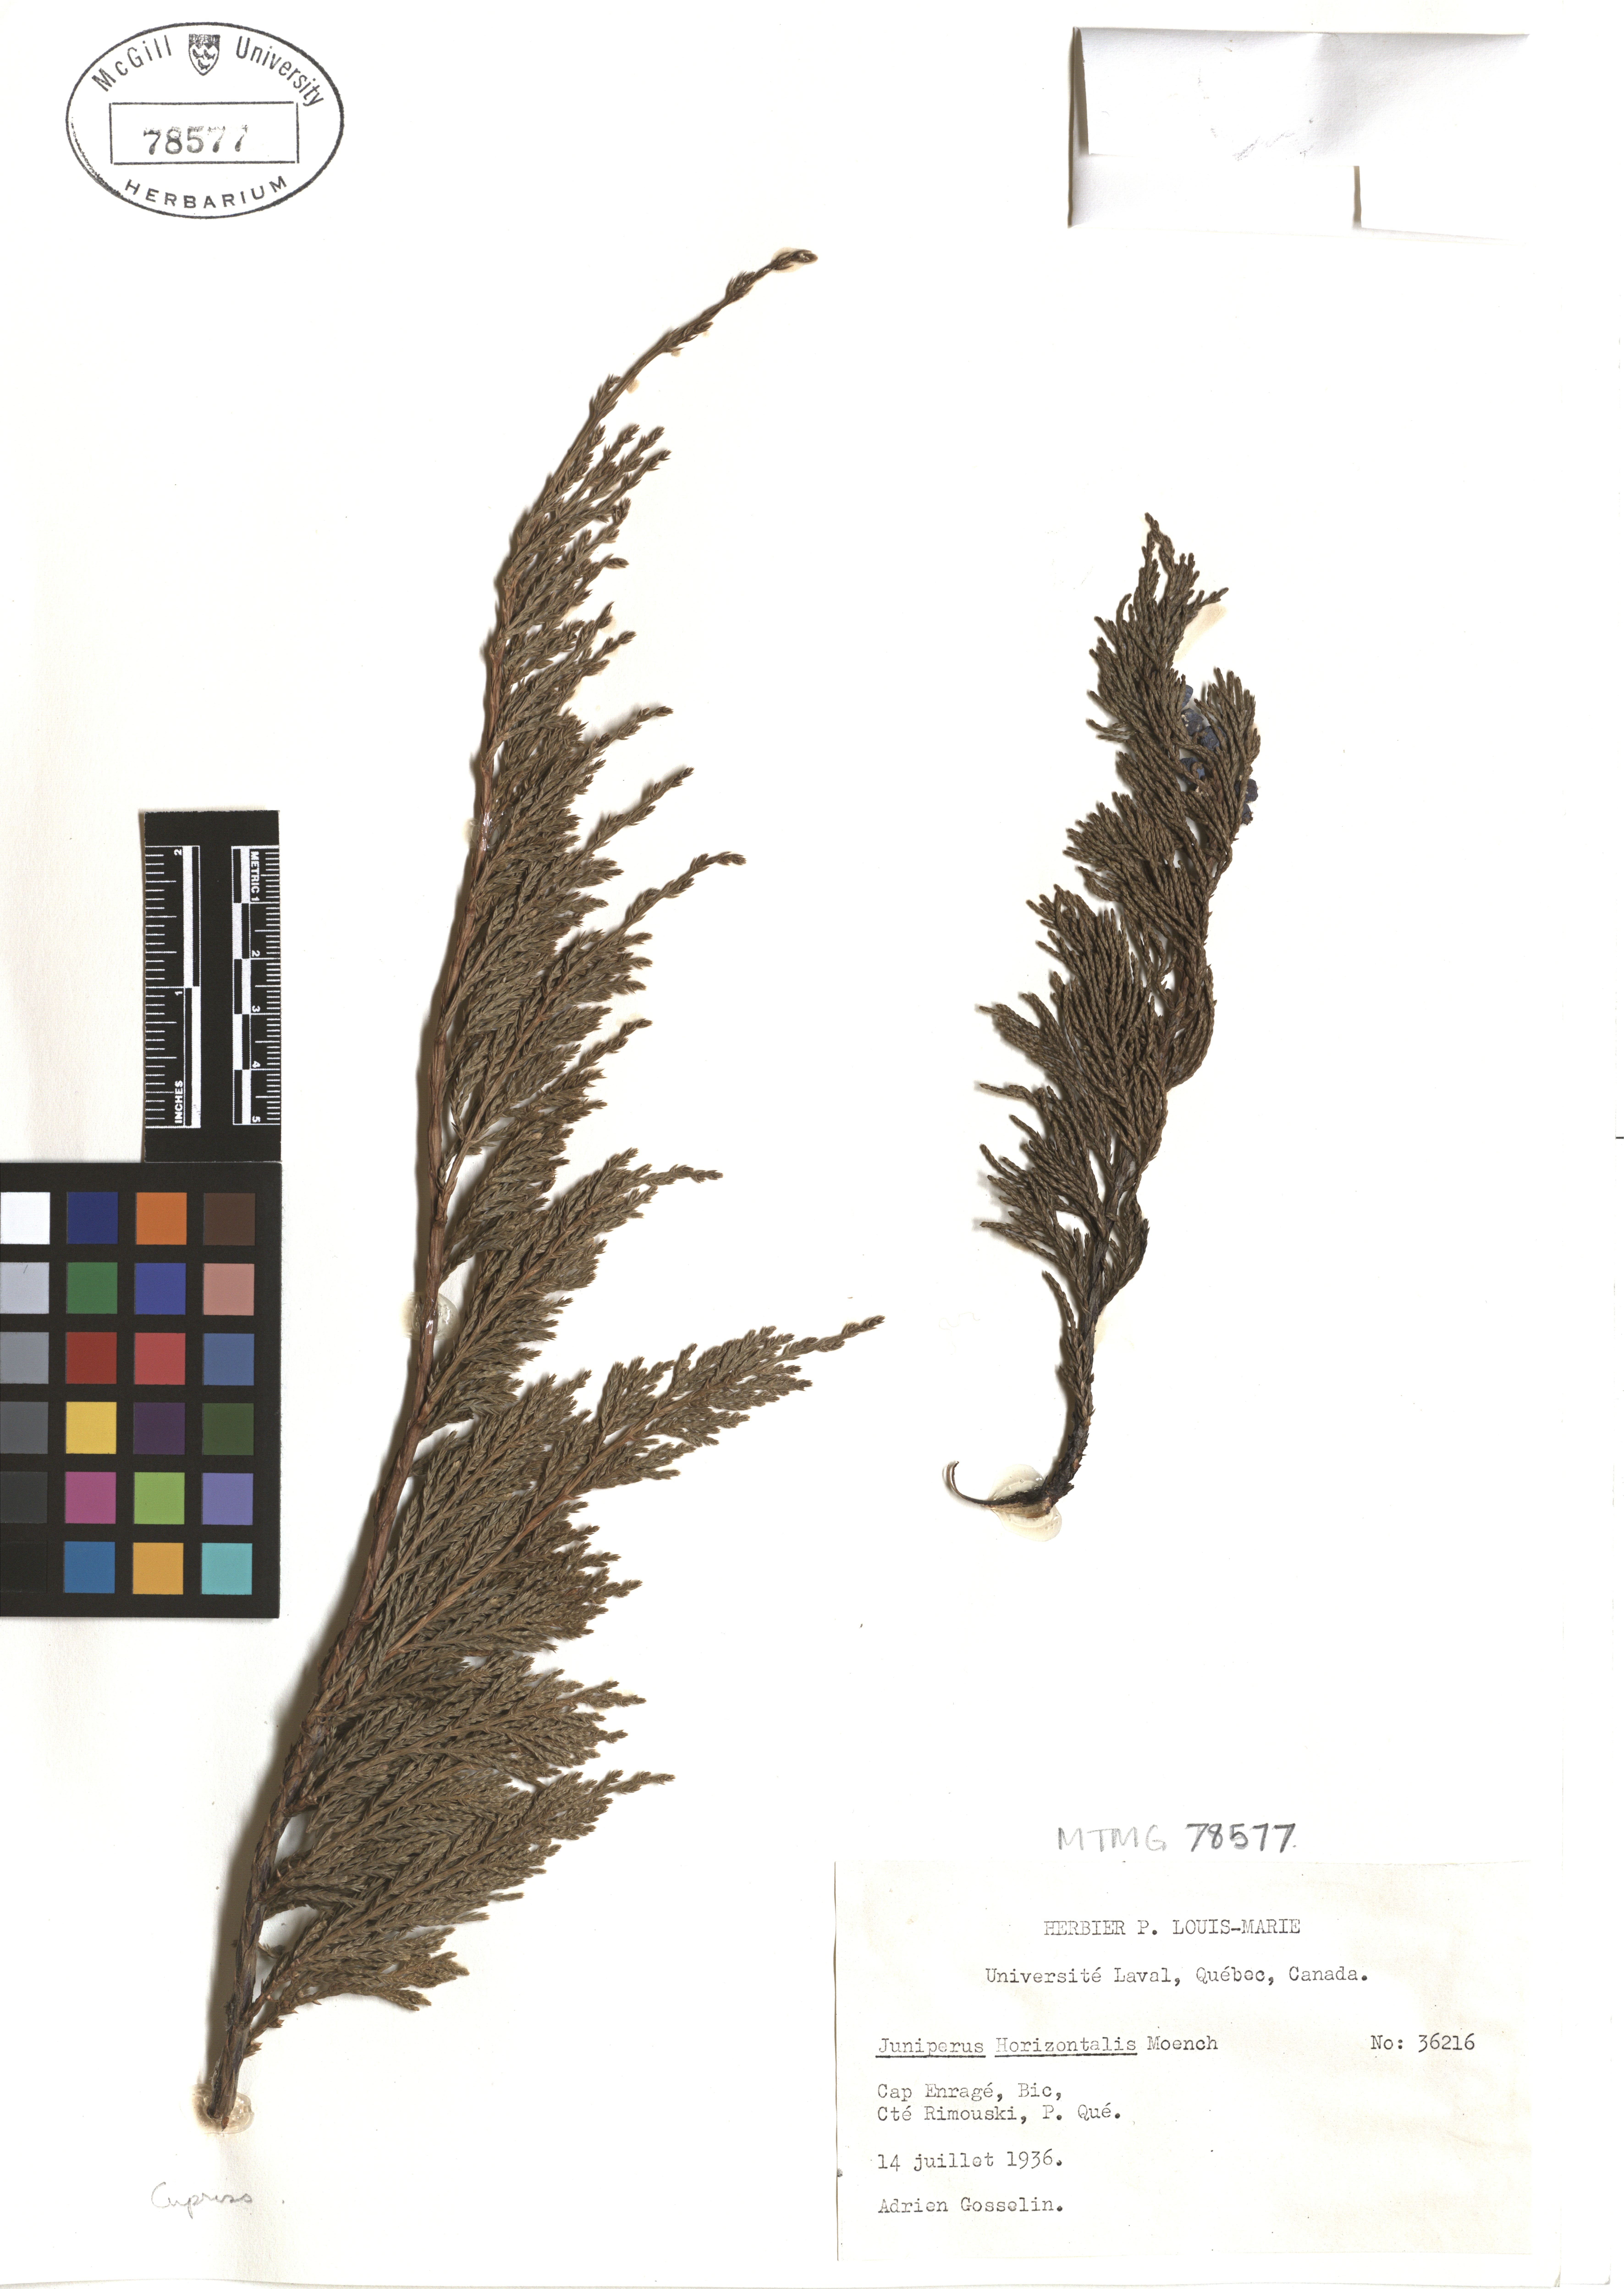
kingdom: Plantae
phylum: Tracheophyta
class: Pinopsida
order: Pinales
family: Cupressaceae
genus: Juniperus
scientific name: Juniperus horizontalis
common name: Creeping juniper
